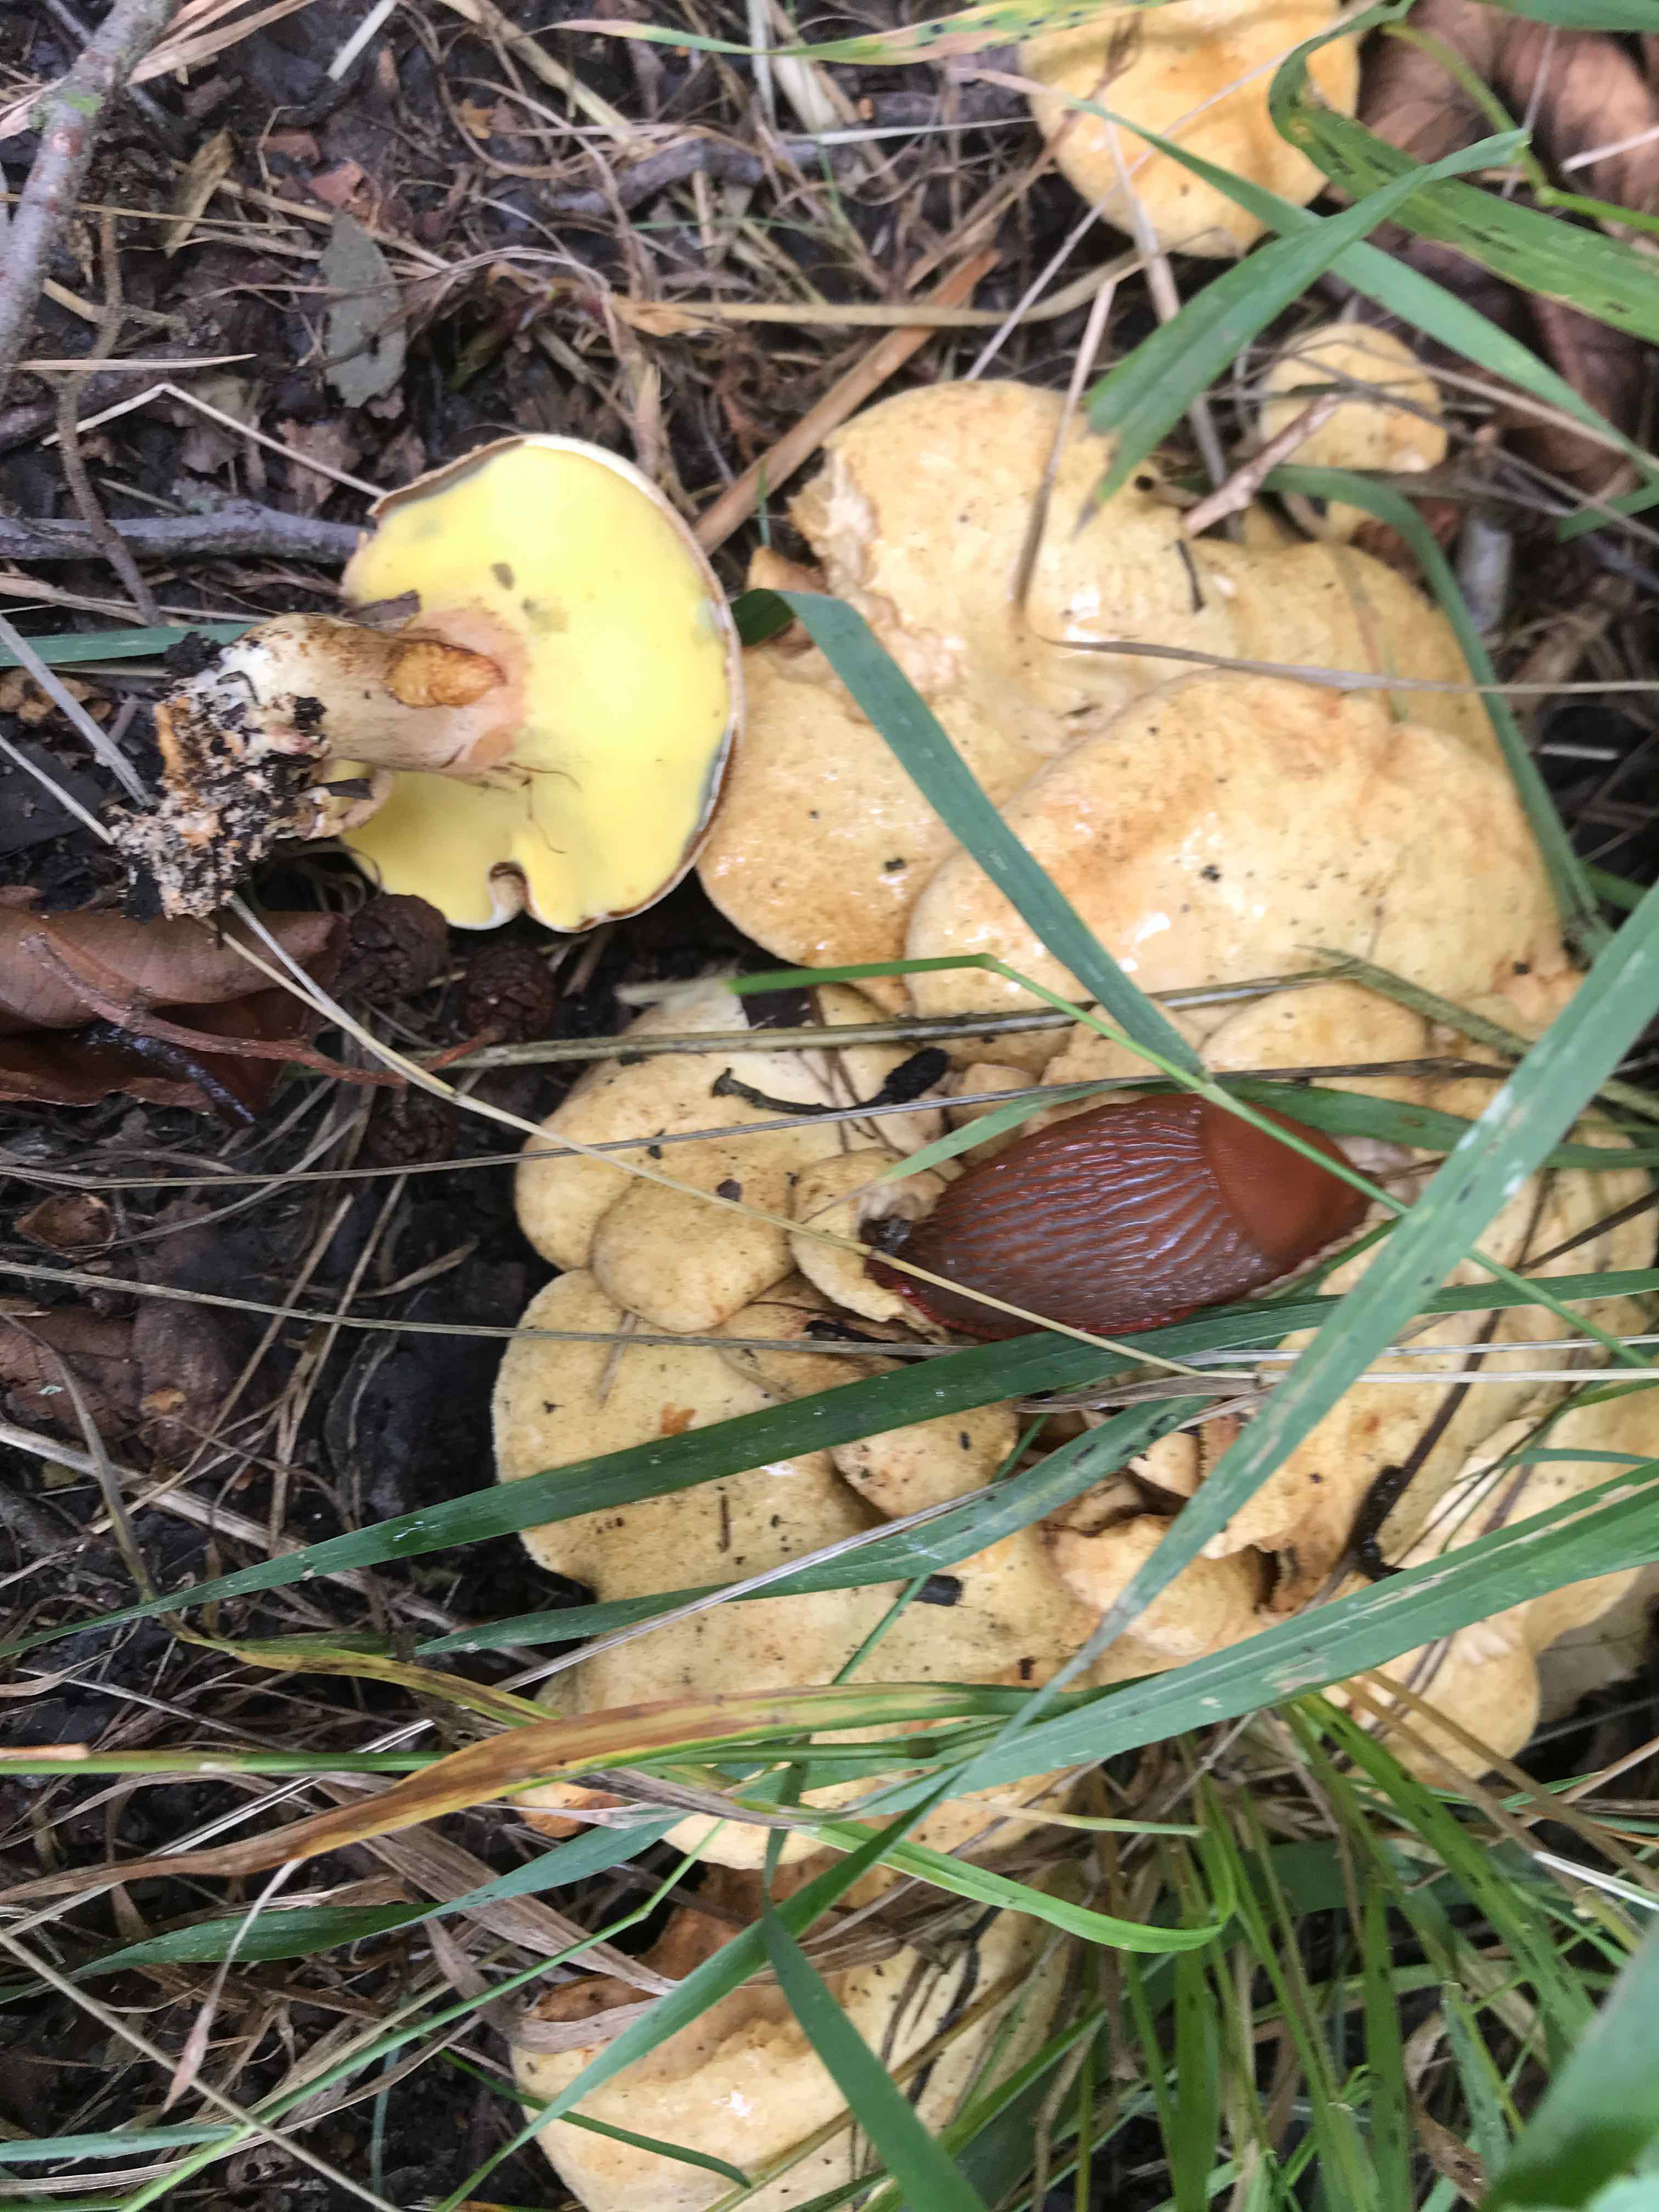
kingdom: Fungi
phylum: Basidiomycota
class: Agaricomycetes
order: Boletales
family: Paxillaceae
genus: Gyrodon
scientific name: Gyrodon lividus
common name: ellerørhat
